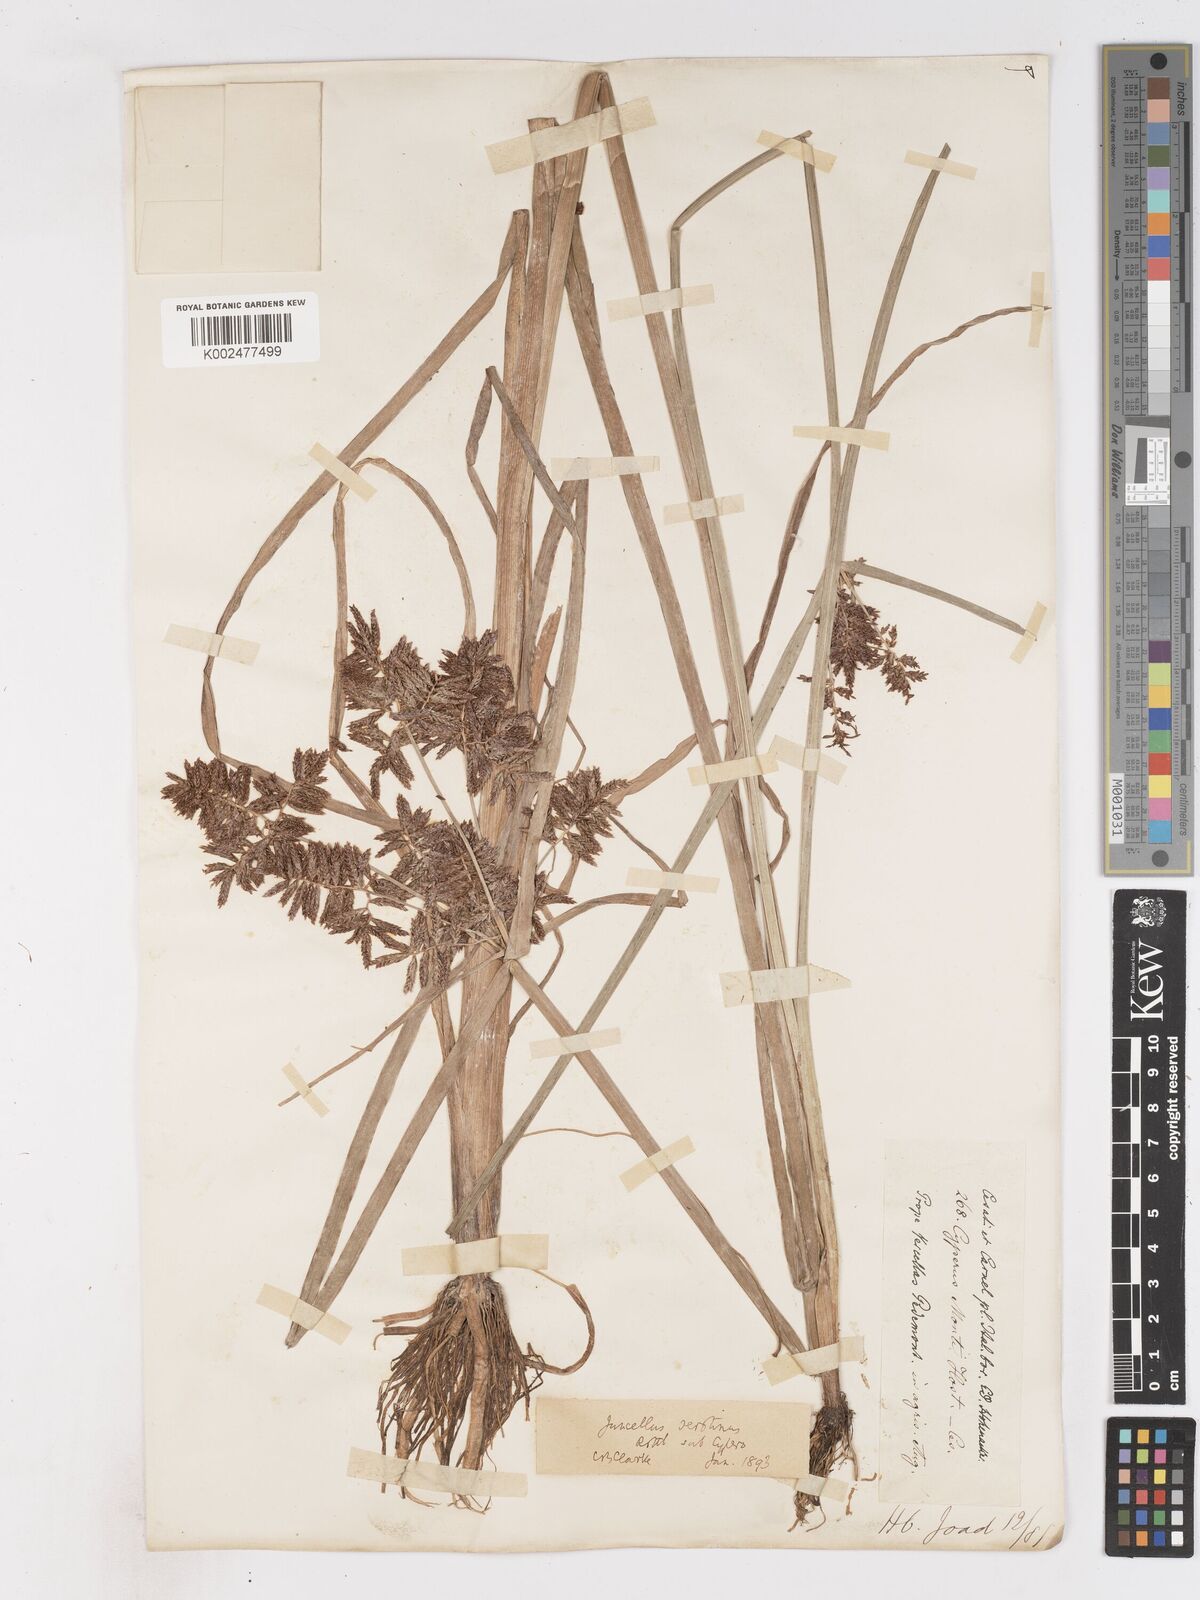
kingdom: Plantae
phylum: Tracheophyta
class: Liliopsida
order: Poales
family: Cyperaceae
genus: Cyperus
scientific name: Cyperus serotinus
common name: Tidalmarsh flatsedge
